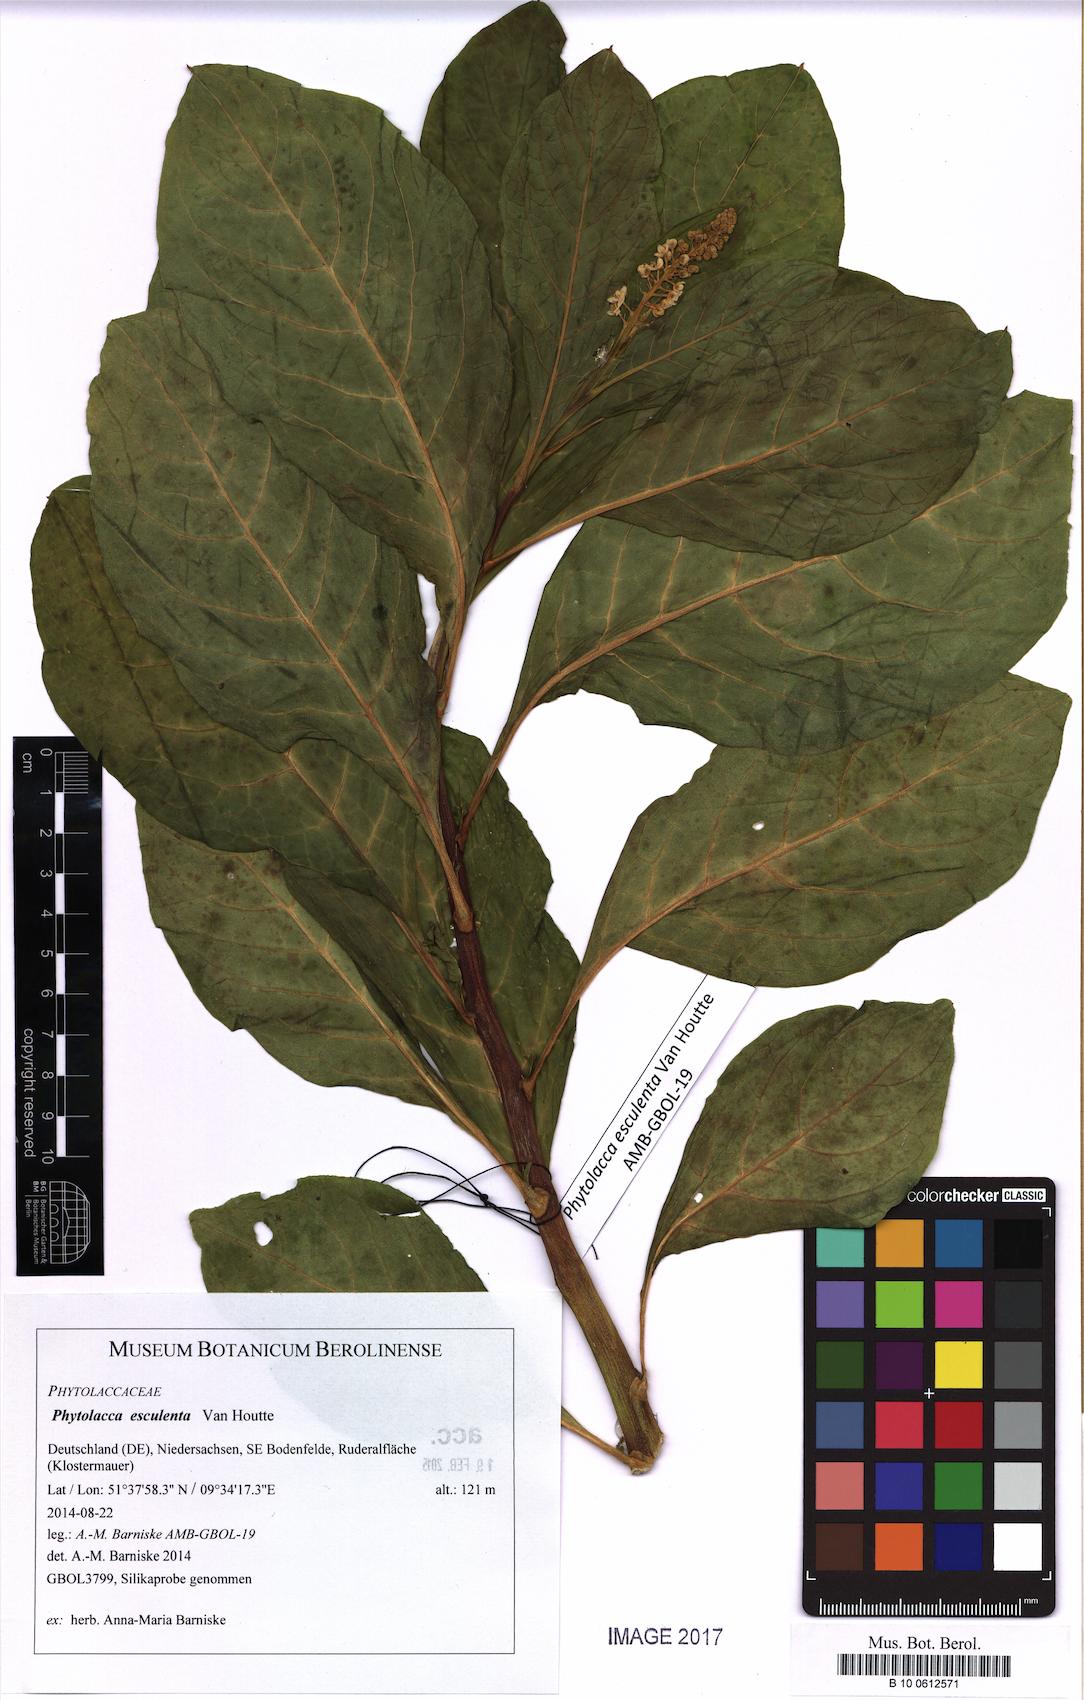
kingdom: Plantae
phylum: Tracheophyta
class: Magnoliopsida
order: Caryophyllales
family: Phytolaccaceae
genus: Phytolacca
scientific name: Phytolacca acinosa
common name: Indian pokeweed
